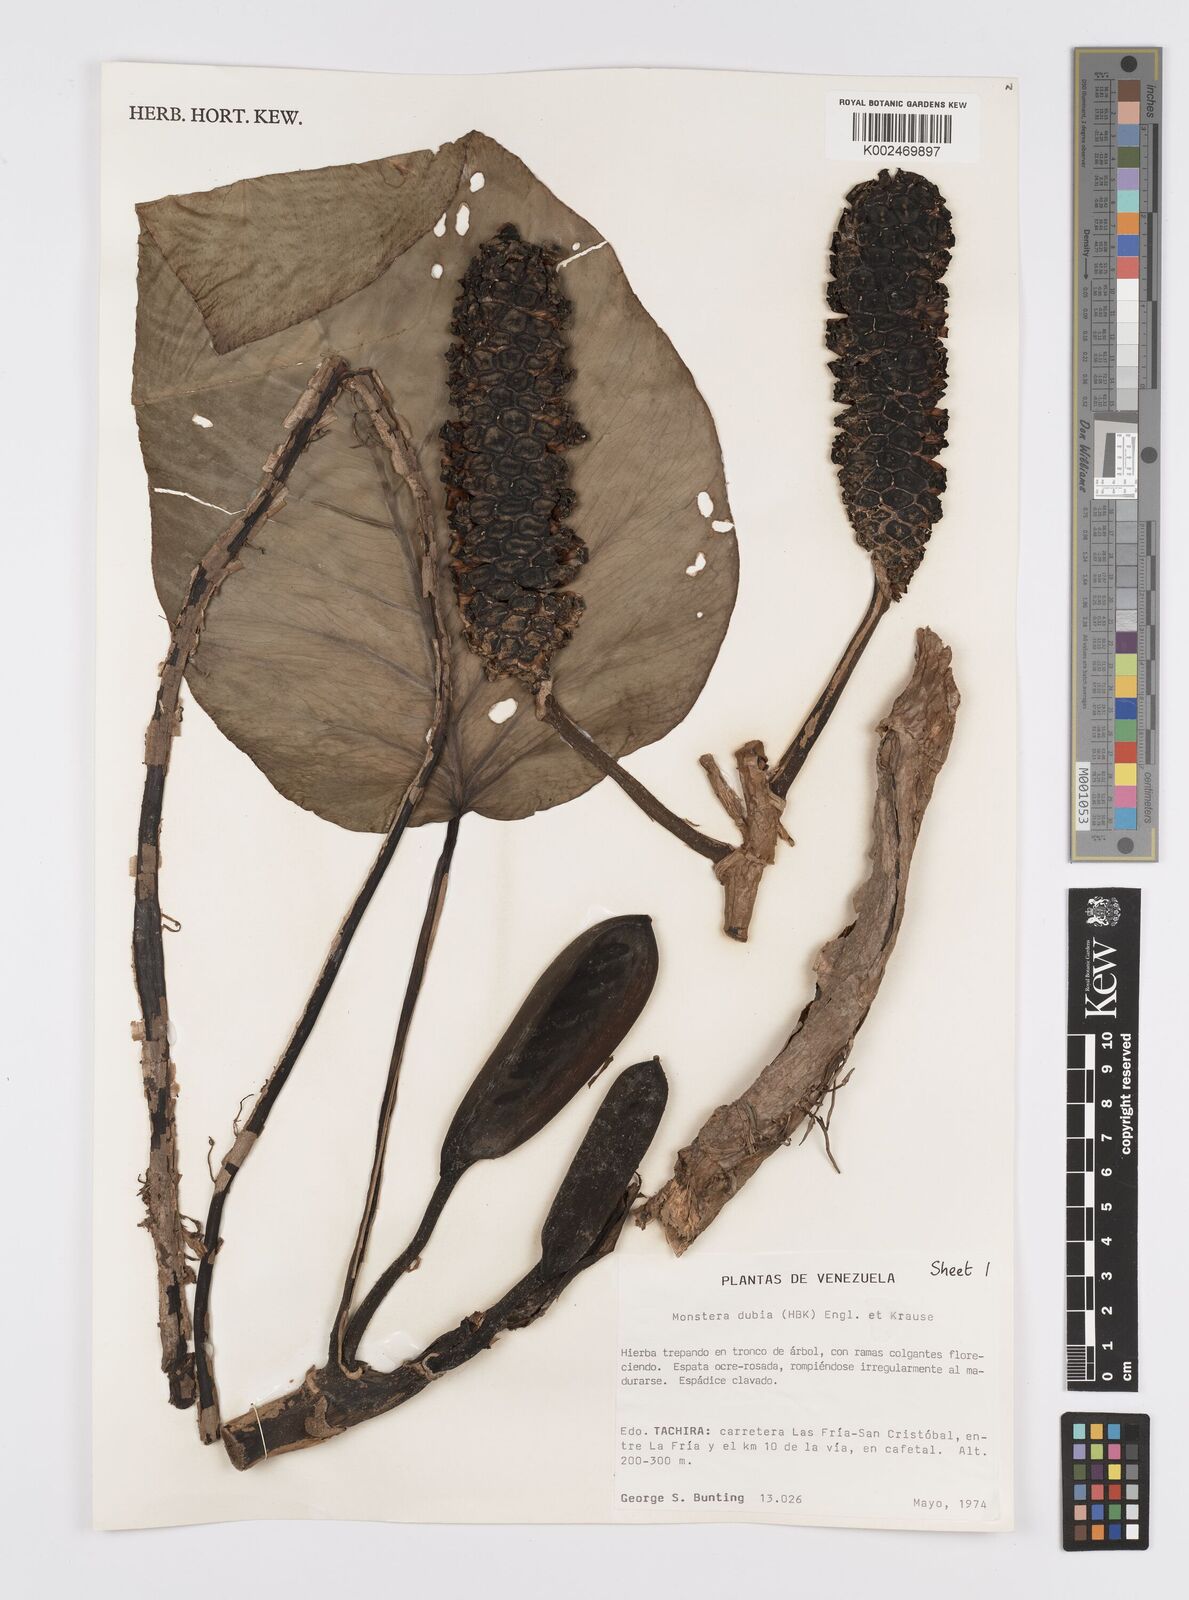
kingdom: Plantae
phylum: Tracheophyta
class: Liliopsida
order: Alismatales
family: Araceae
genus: Monstera
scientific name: Monstera dubia
